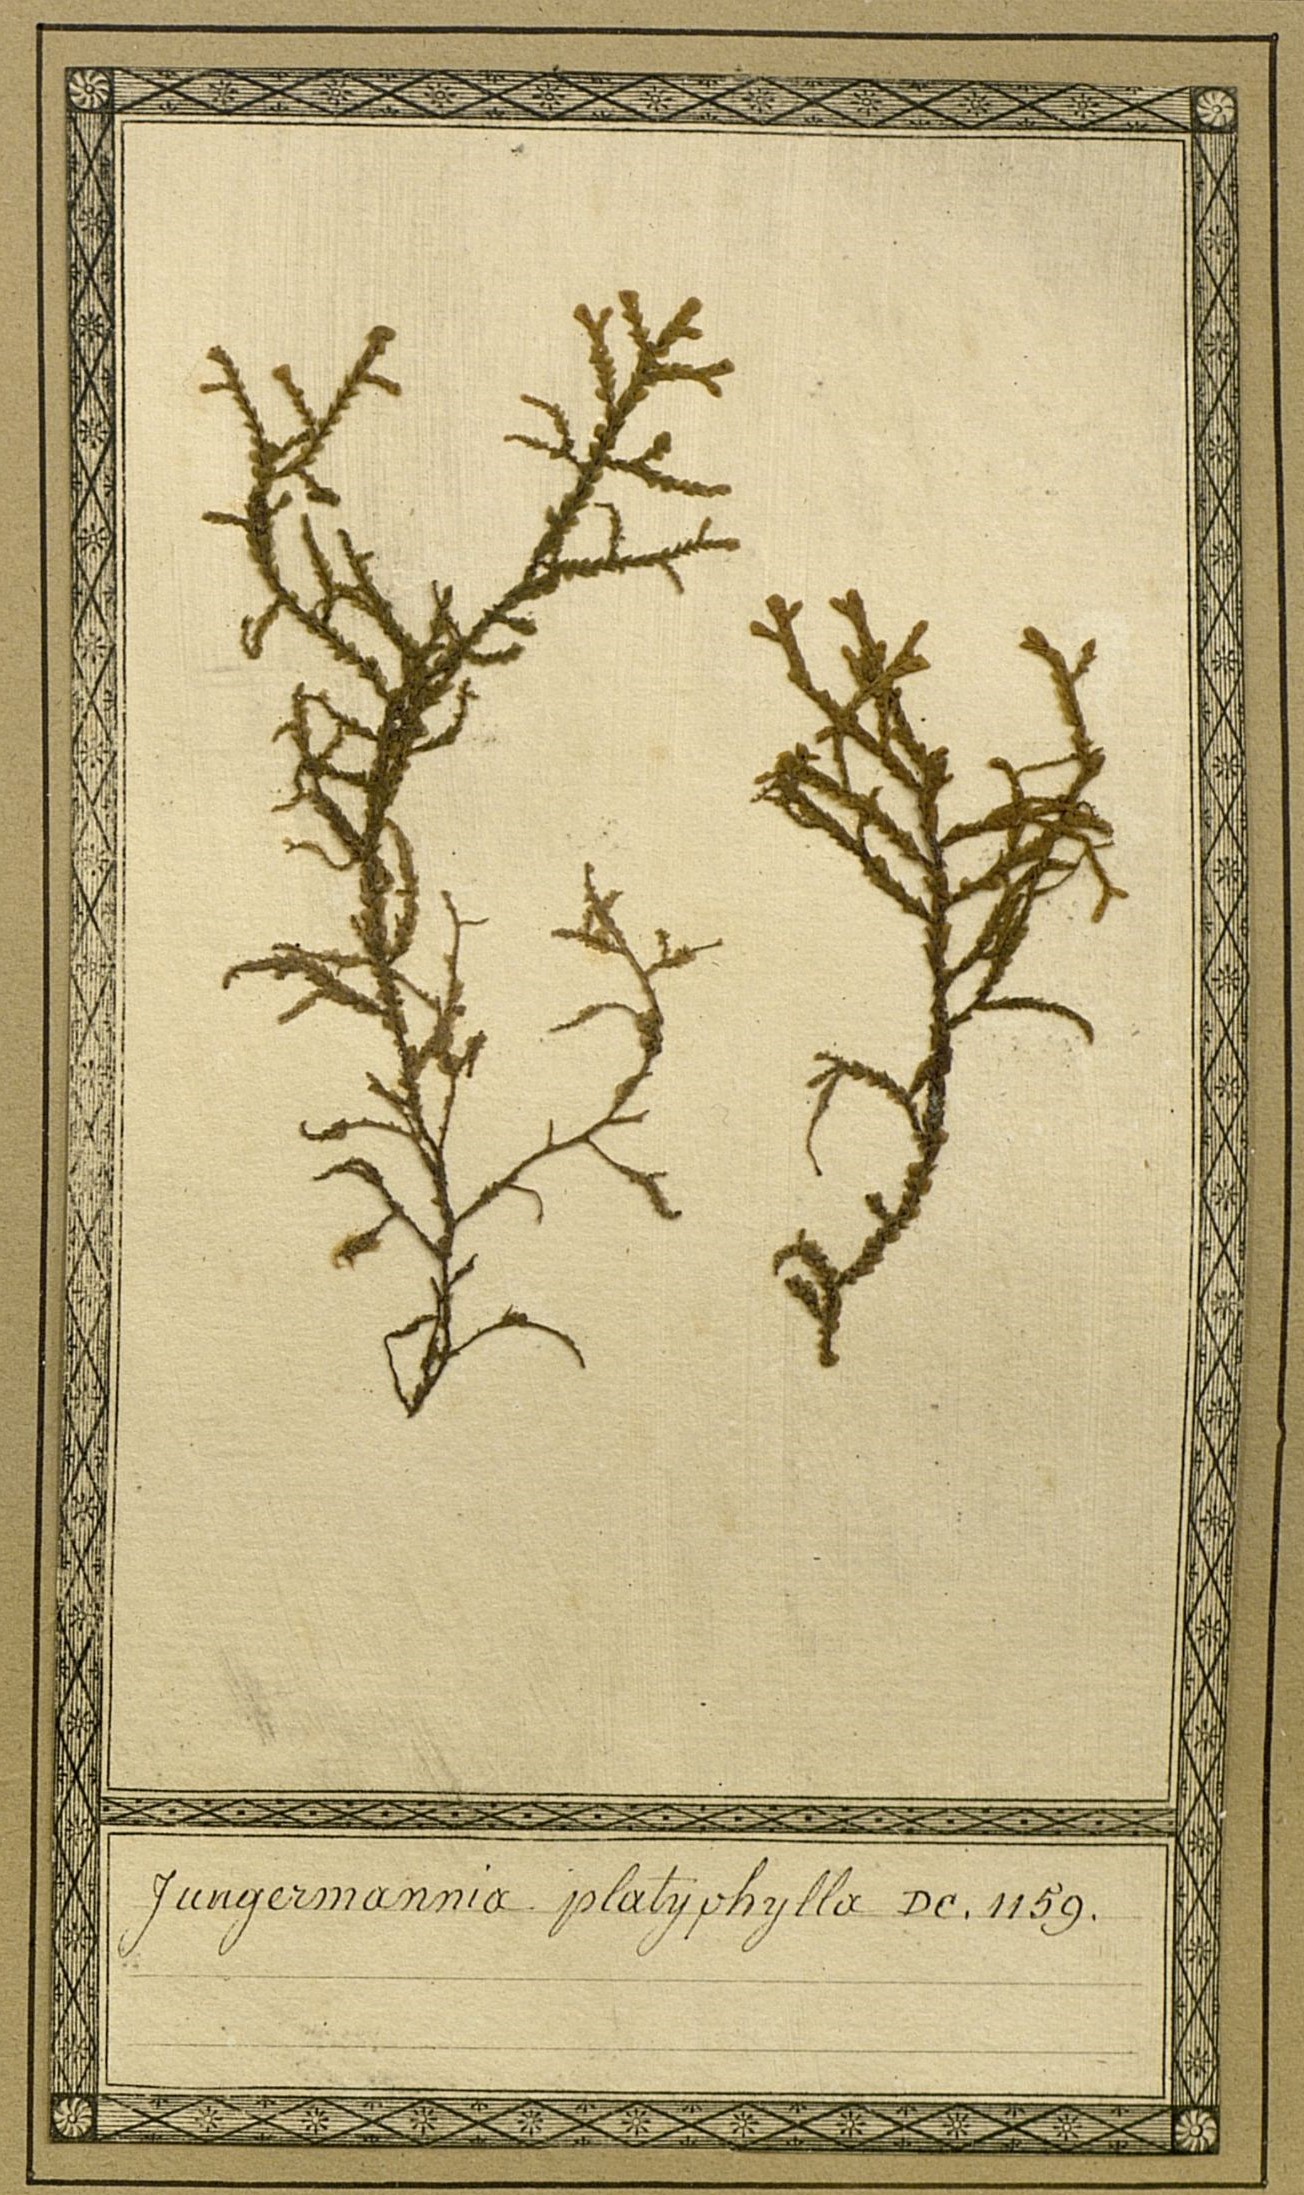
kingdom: Plantae
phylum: Marchantiophyta
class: Jungermanniopsida
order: Jungermanniales
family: Lepidoziaceae
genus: Bazzania
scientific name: Bazzania placophylla
